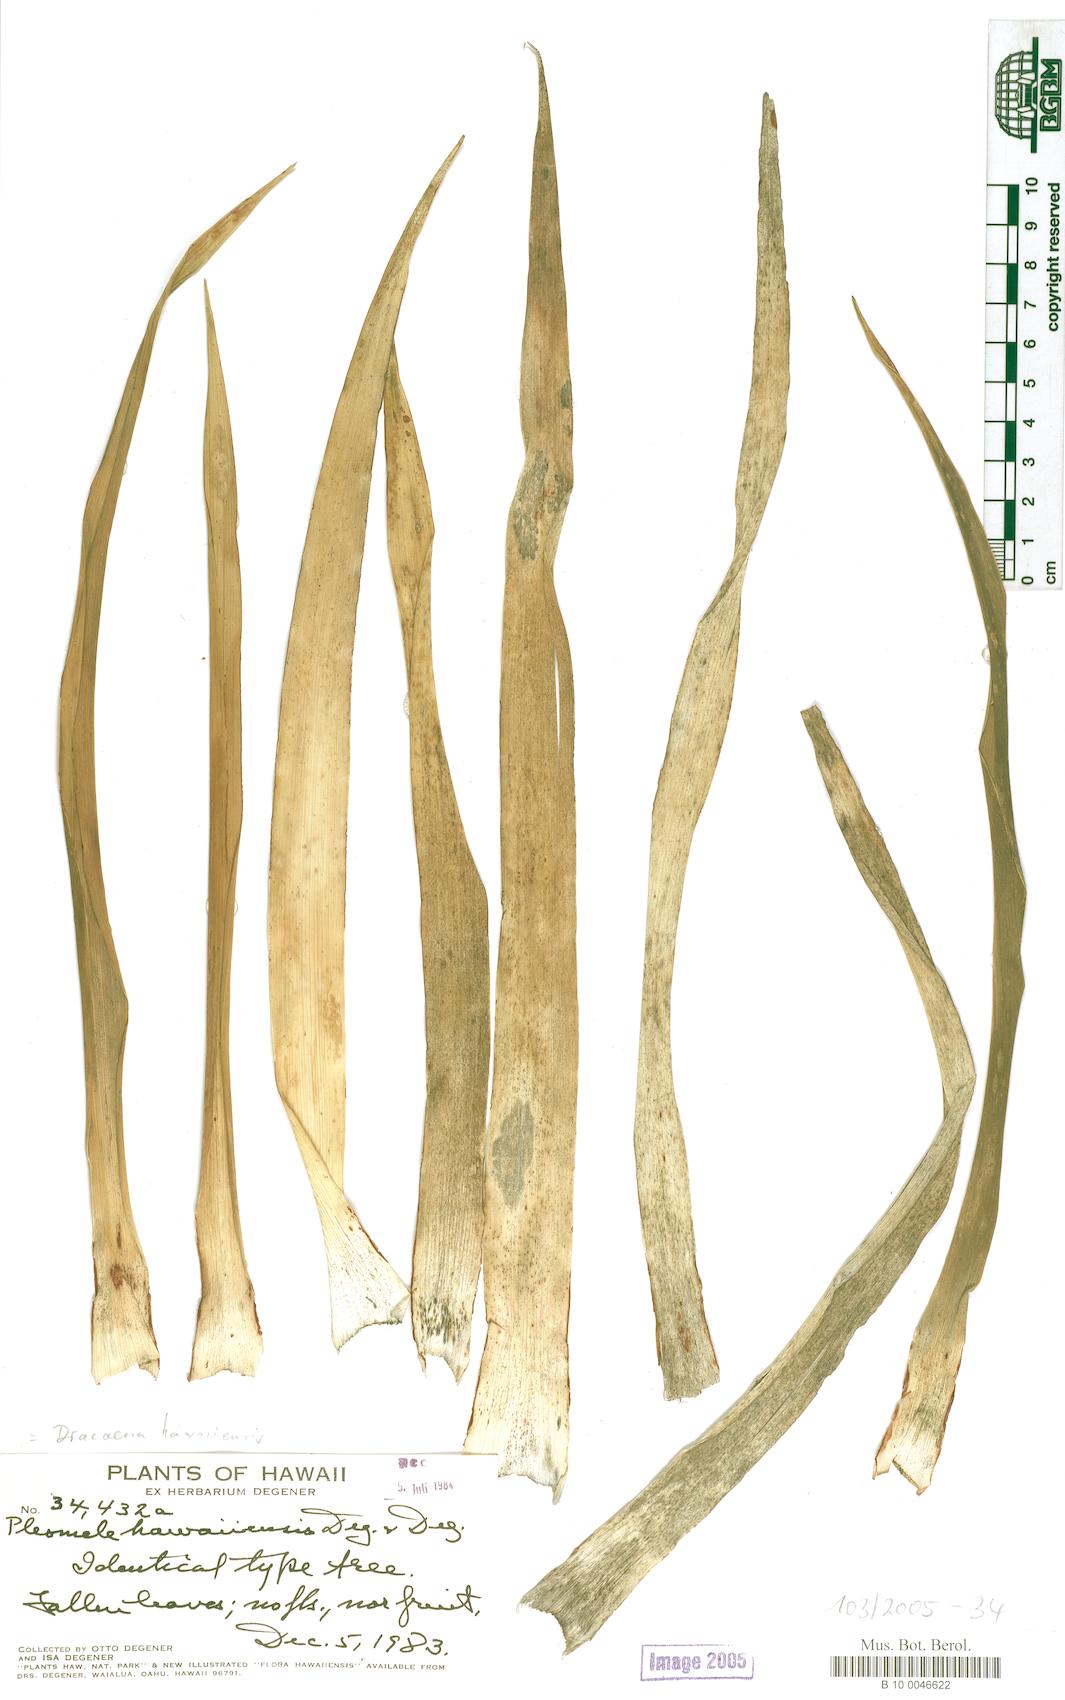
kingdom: Plantae
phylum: Tracheophyta
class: Liliopsida
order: Asparagales
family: Asparagaceae
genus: Dracaena
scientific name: Dracaena fernaldii
